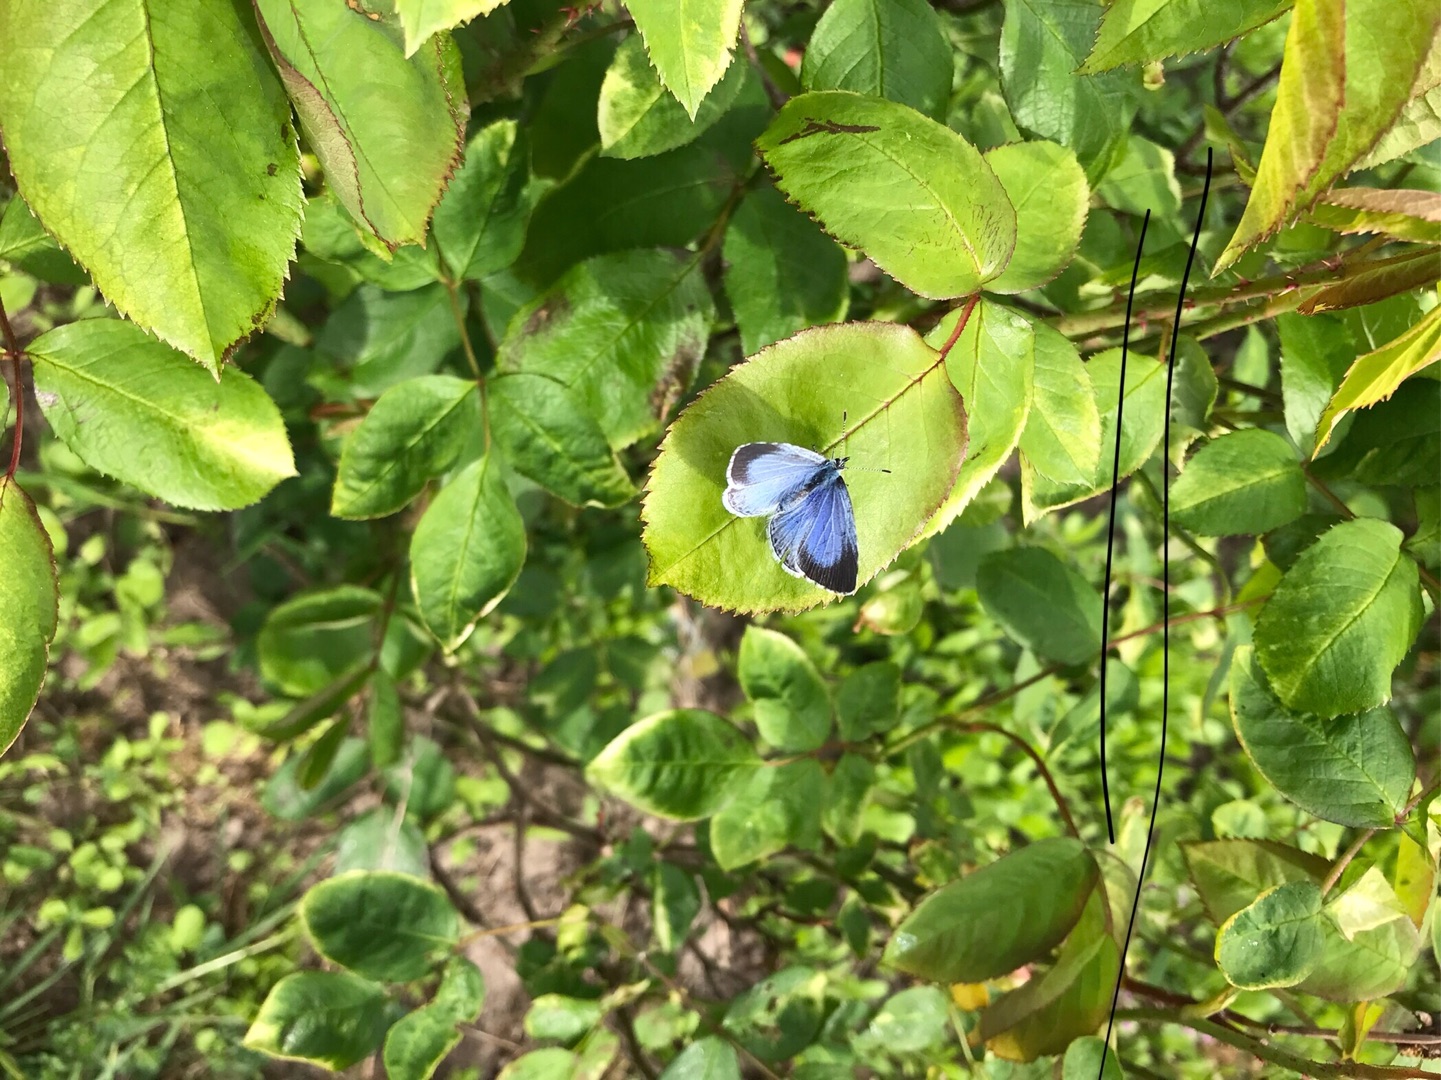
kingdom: Animalia
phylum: Arthropoda
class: Insecta
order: Lepidoptera
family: Lycaenidae
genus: Celastrina
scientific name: Celastrina argiolus
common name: Skovblåfugl
